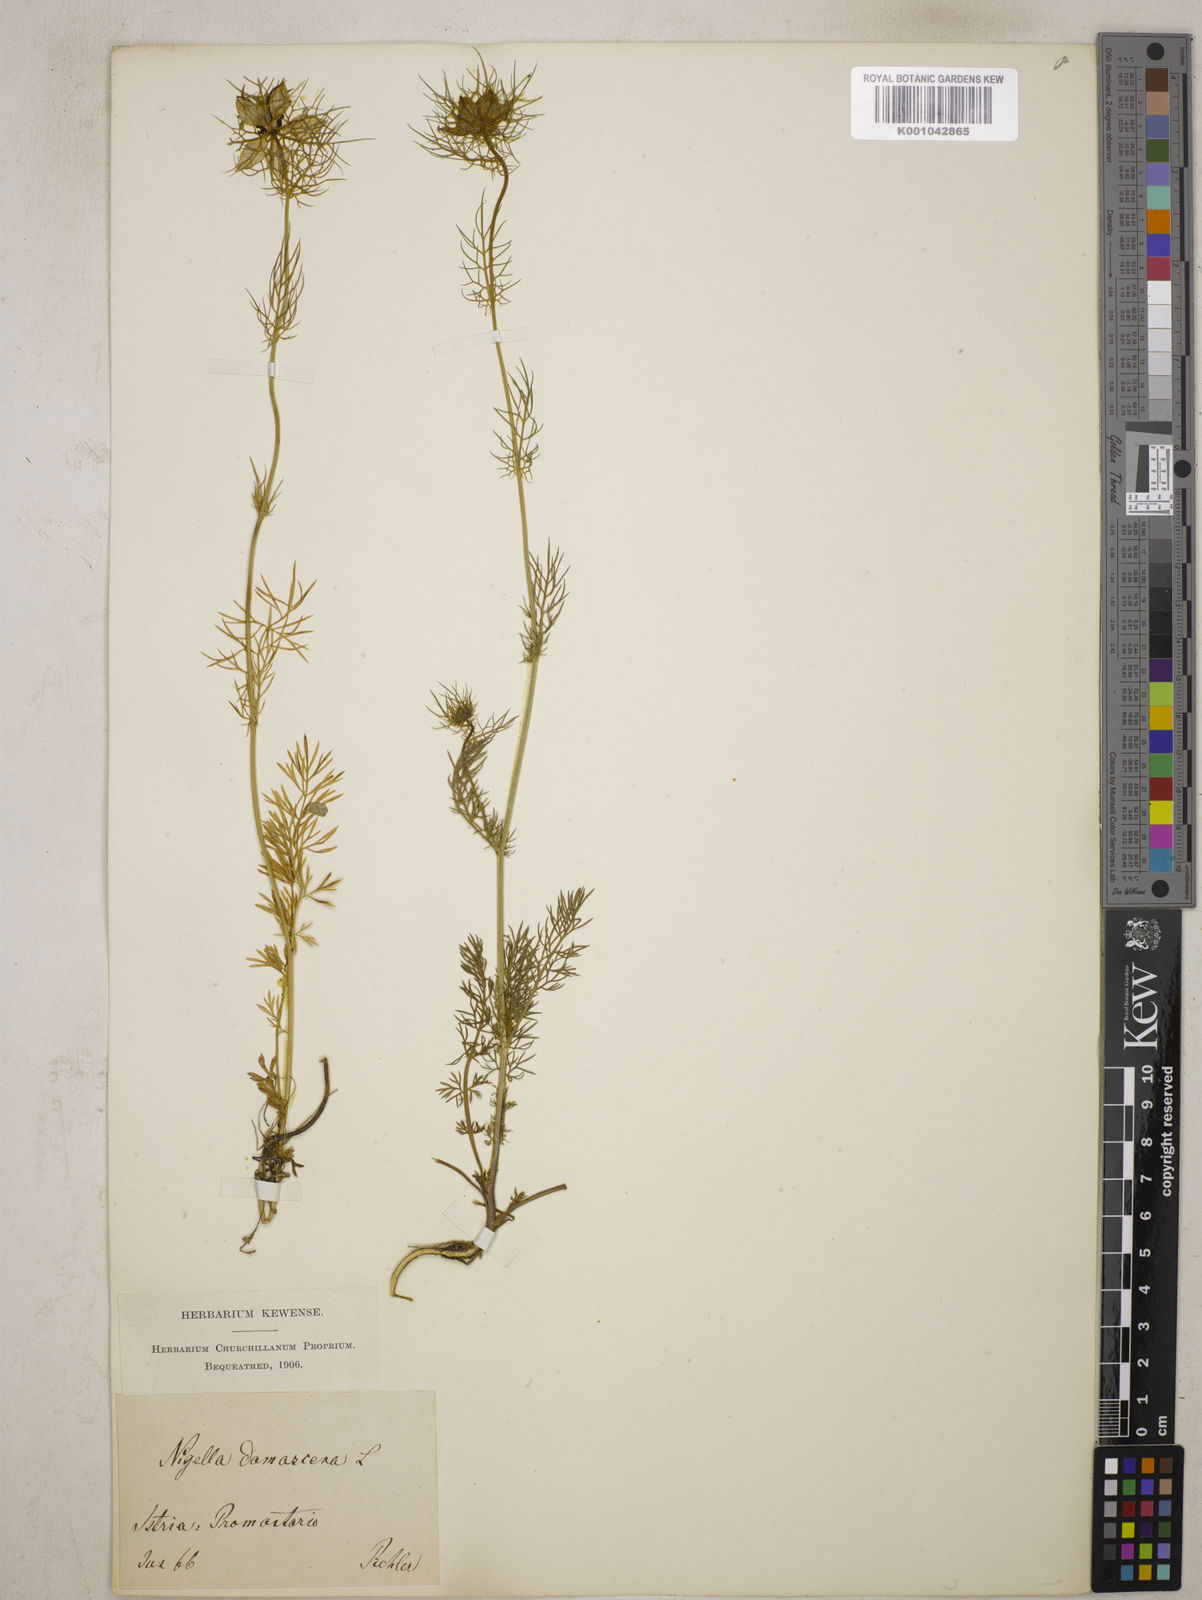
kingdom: Plantae
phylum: Tracheophyta
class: Magnoliopsida
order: Ranunculales
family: Ranunculaceae
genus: Nigella
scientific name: Nigella damascena
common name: Love-in-a-mist
